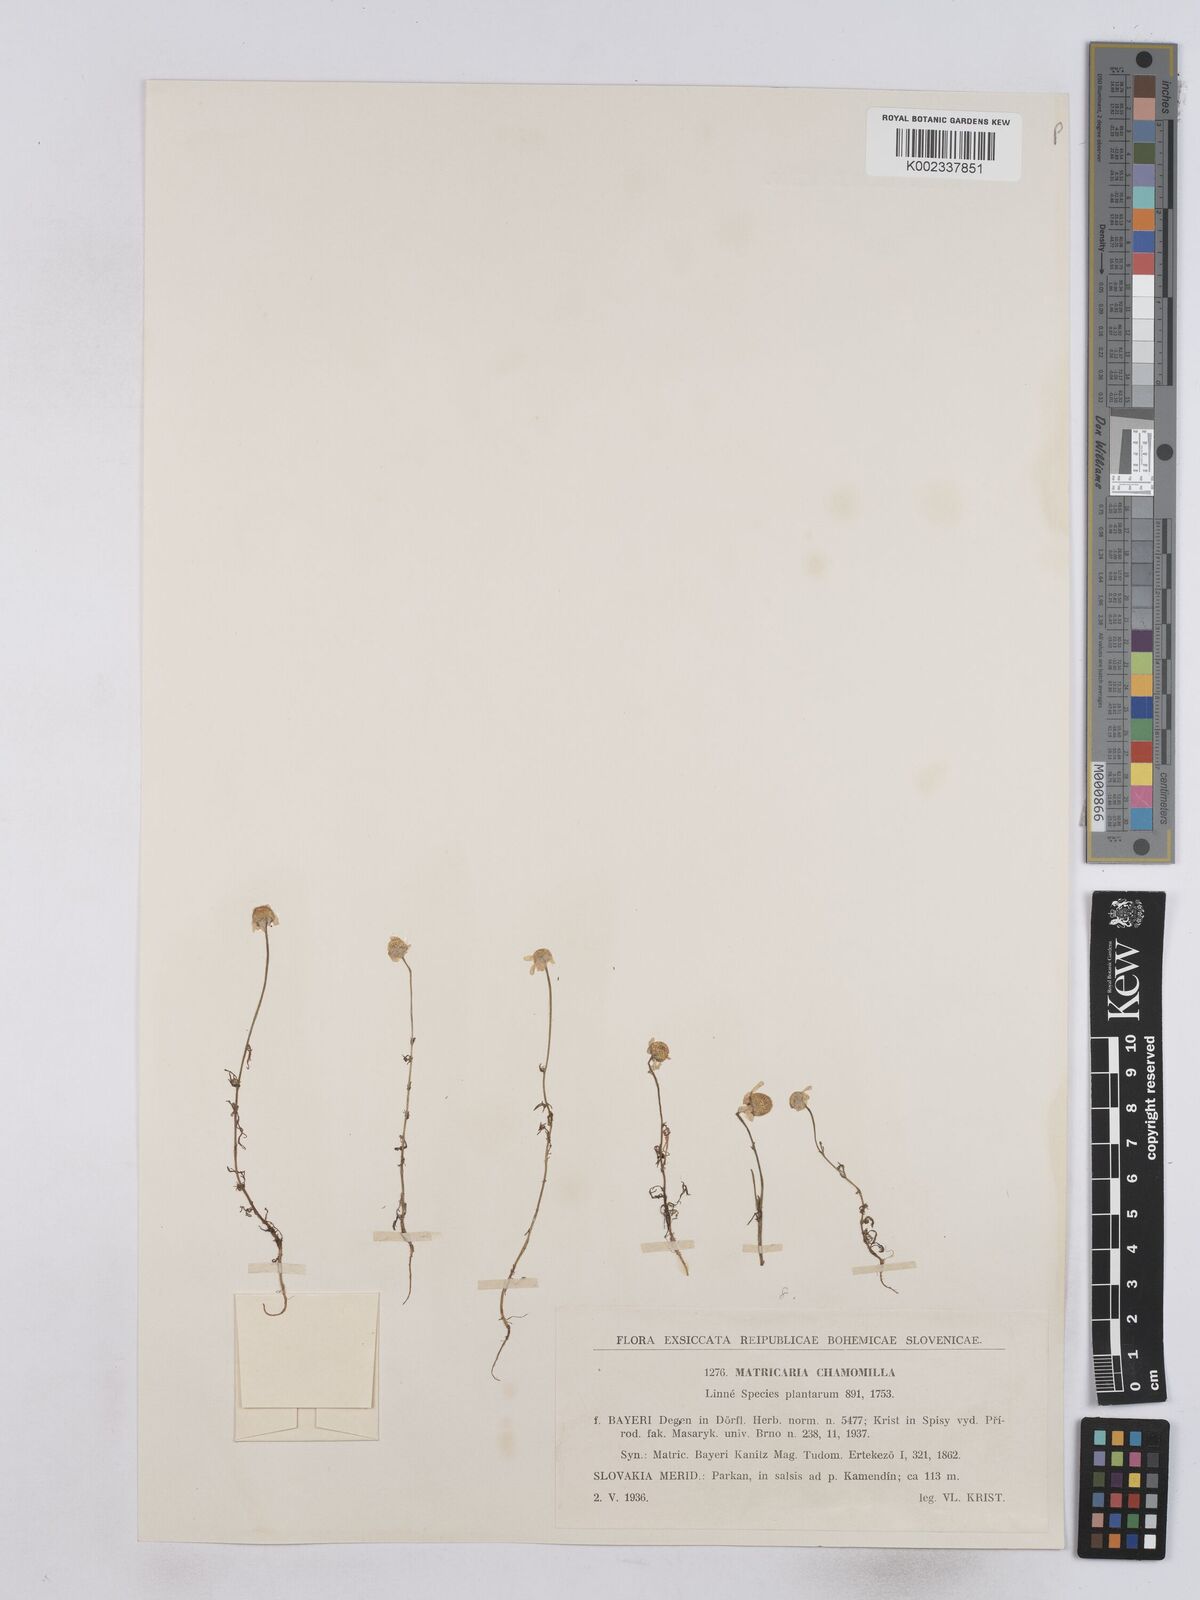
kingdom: Plantae
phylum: Tracheophyta
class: Magnoliopsida
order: Asterales
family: Asteraceae
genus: Matricaria
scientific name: Matricaria chamomilla
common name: Scented mayweed
